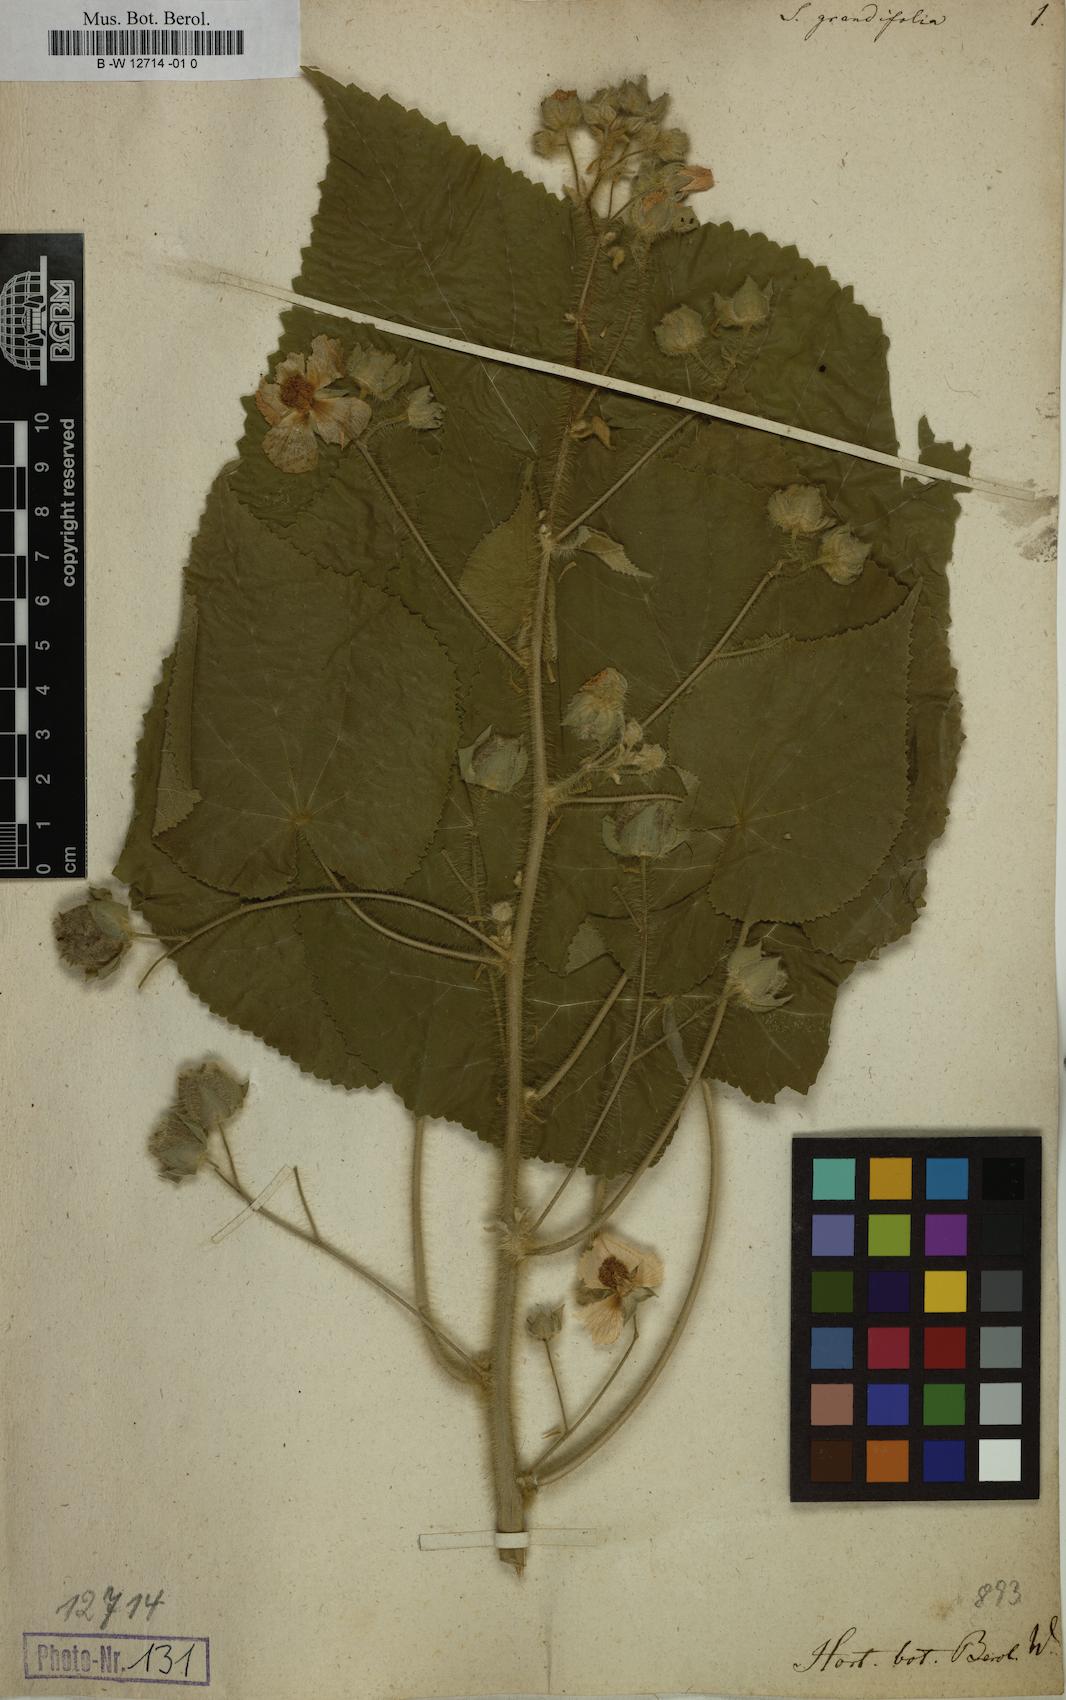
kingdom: Plantae
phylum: Tracheophyta
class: Magnoliopsida
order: Malvales
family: Malvaceae
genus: Abutilon
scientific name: Abutilon grandifolium
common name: Hairy abutilon
